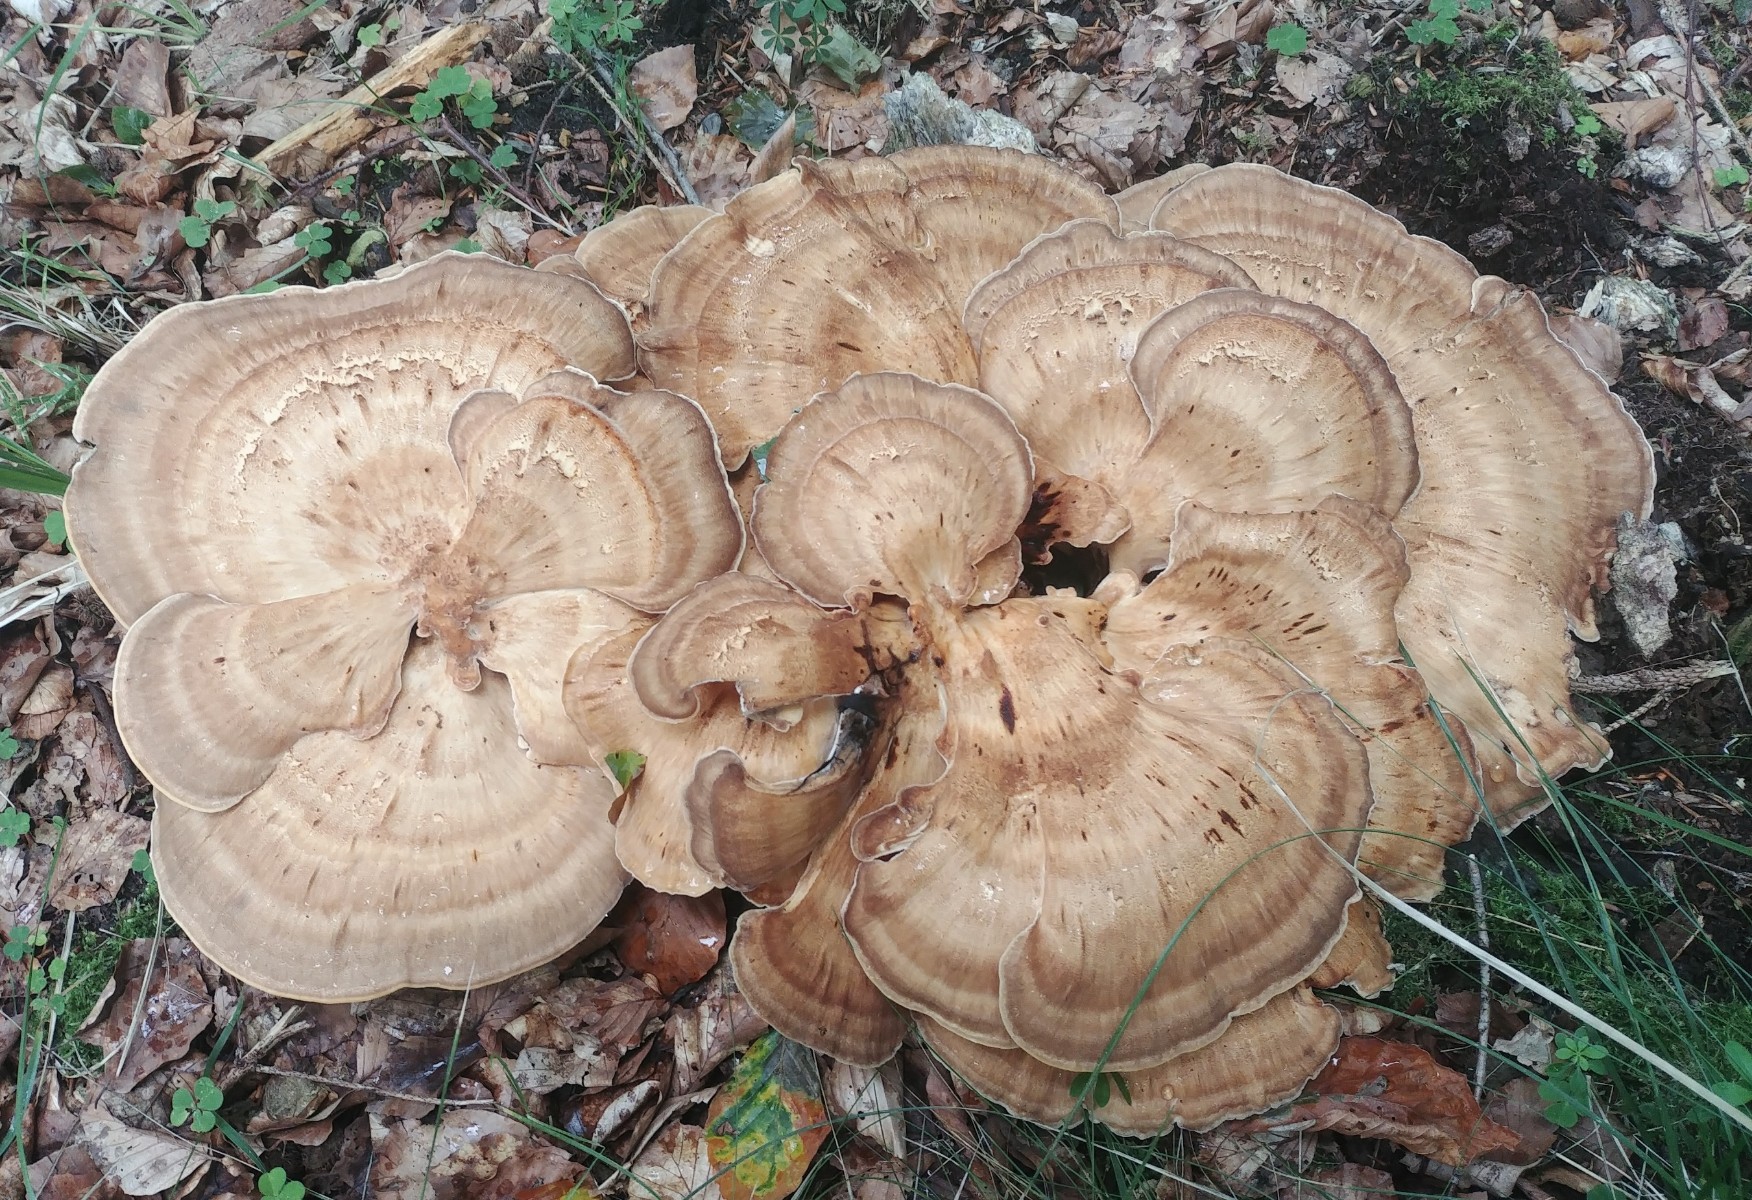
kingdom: Fungi
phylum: Basidiomycota
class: Agaricomycetes
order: Polyporales
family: Meripilaceae
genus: Meripilus
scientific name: Meripilus giganteus
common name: kæmpeporesvamp
